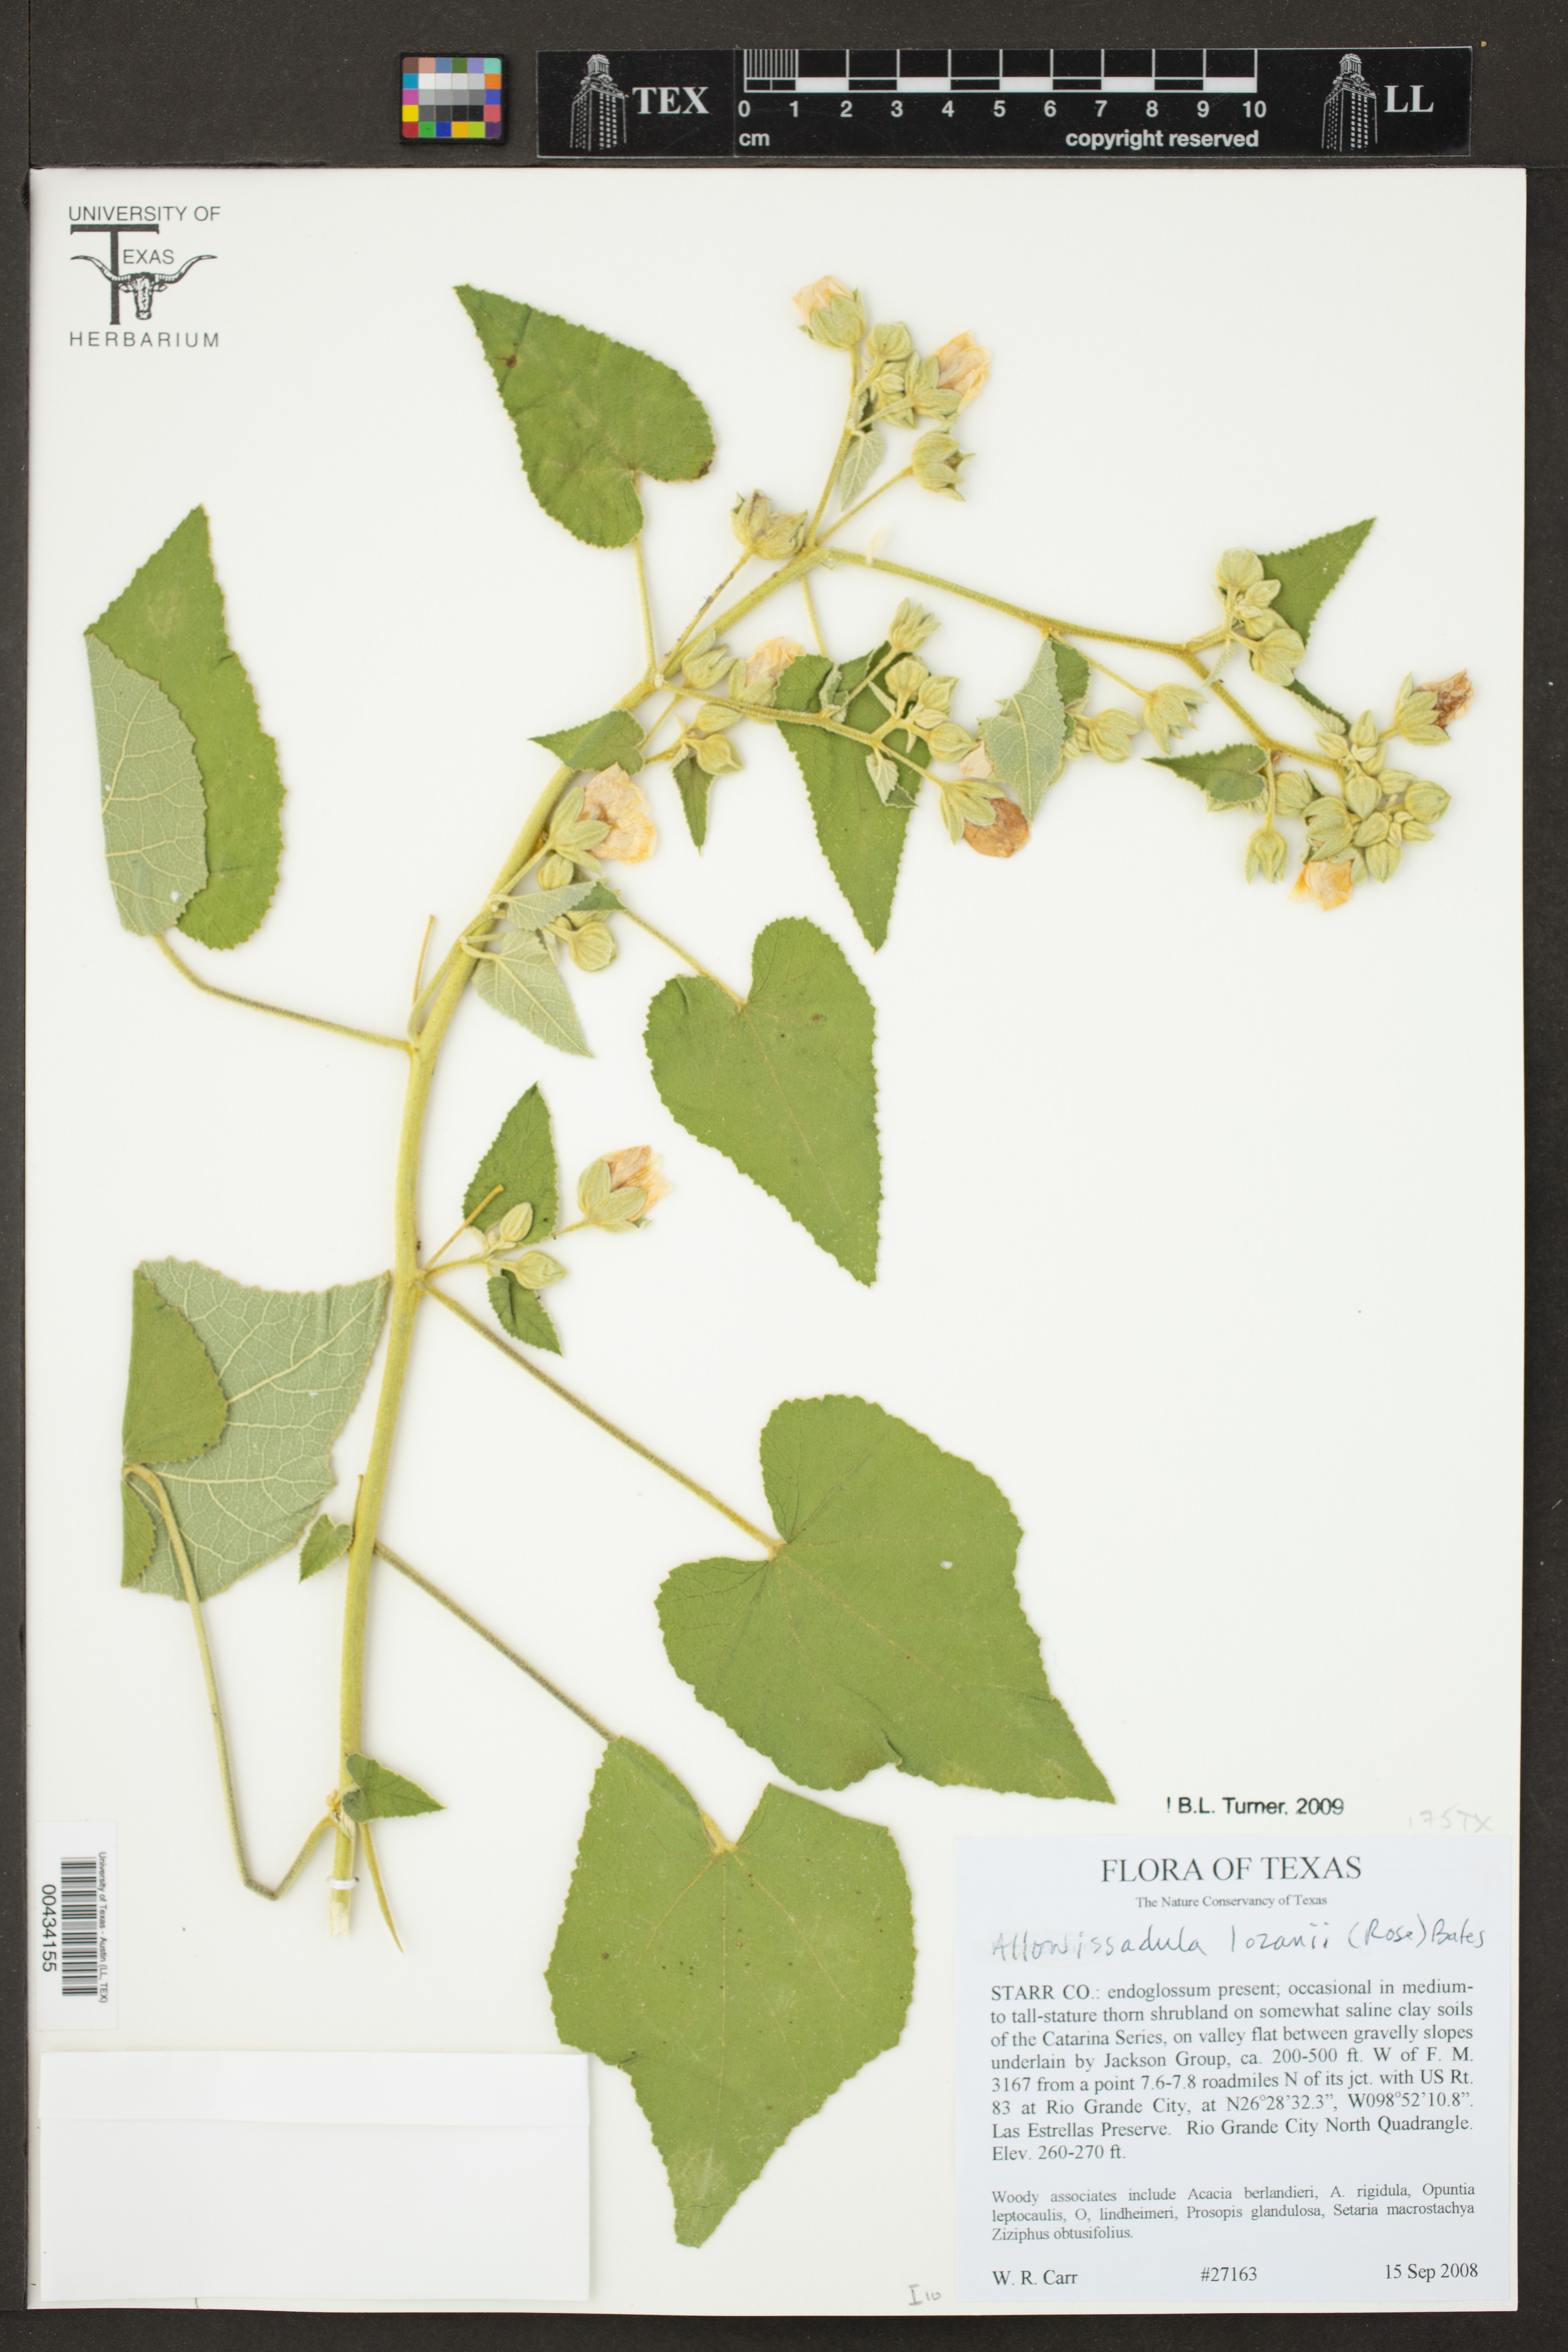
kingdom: Plantae
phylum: Tracheophyta
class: Magnoliopsida
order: Malvales
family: Malvaceae
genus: Allowissadula
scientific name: Allowissadula lozanii
